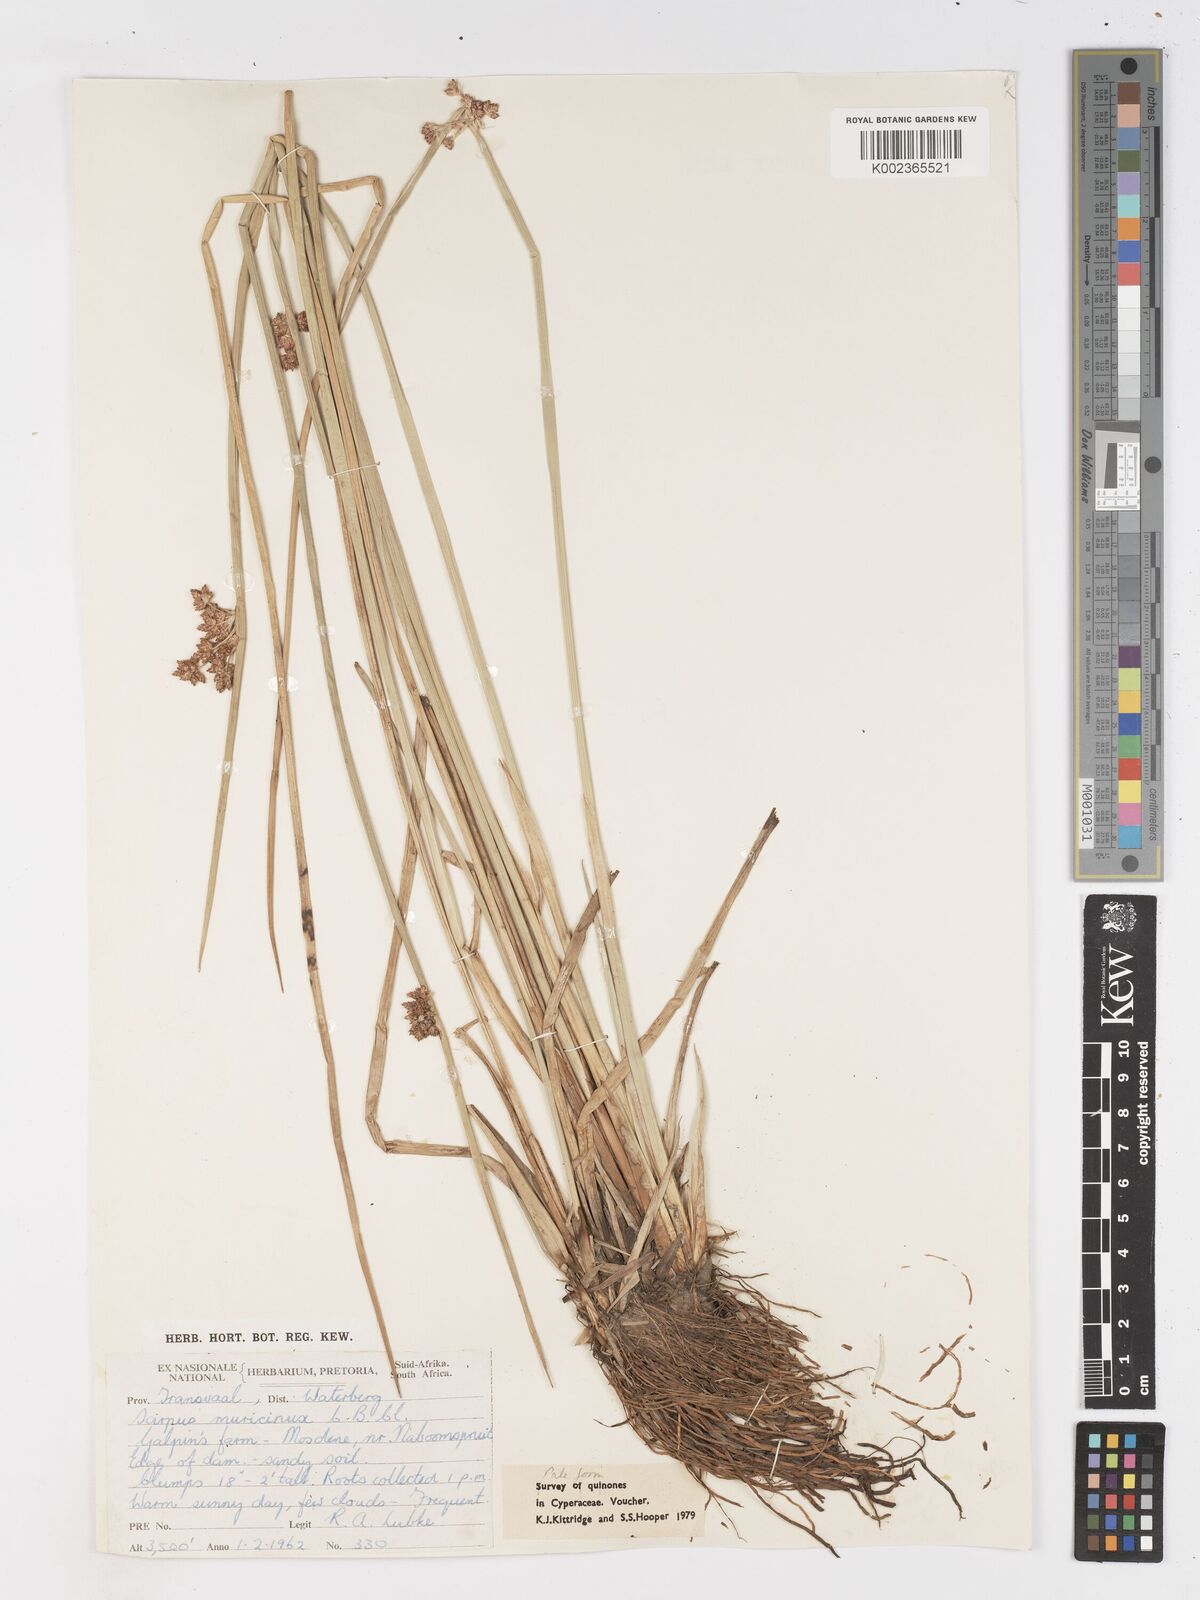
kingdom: Plantae
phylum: Tracheophyta
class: Liliopsida
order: Poales
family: Cyperaceae
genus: Schoenoplectiella
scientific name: Schoenoplectiella muricinux
